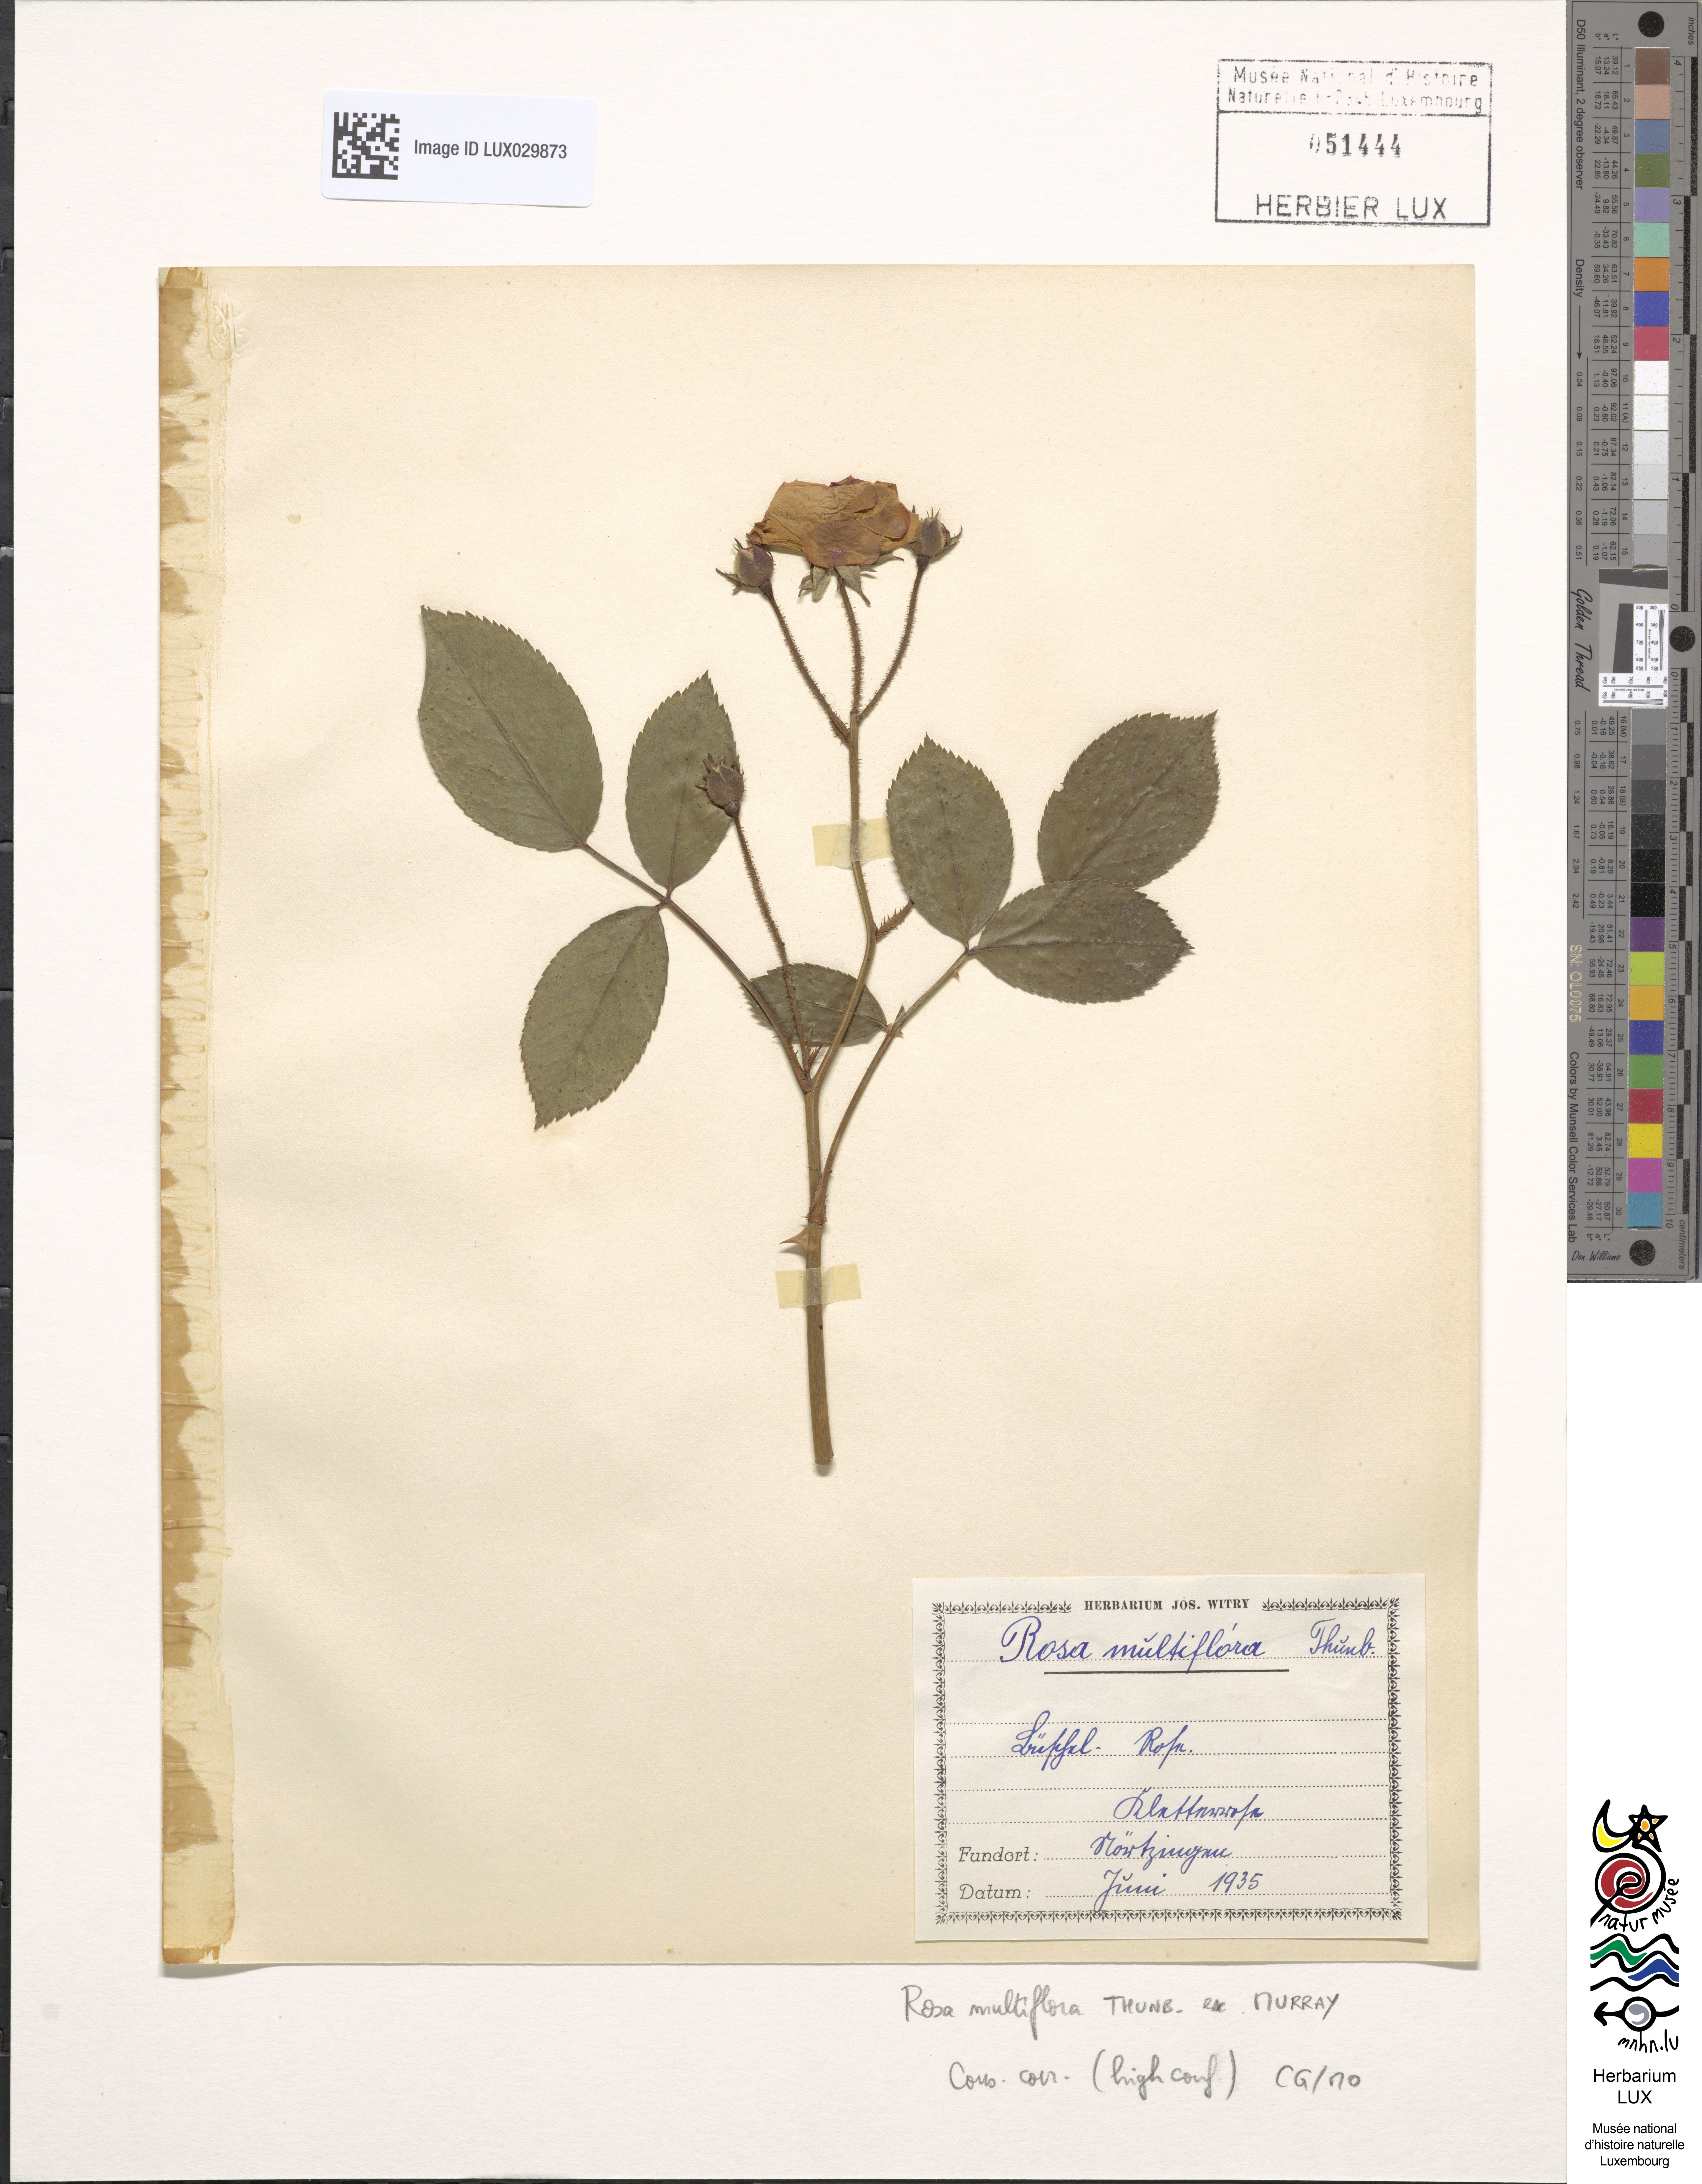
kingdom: Plantae
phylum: Tracheophyta
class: Magnoliopsida
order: Rosales
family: Rosaceae
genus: Rosa
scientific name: Rosa multiflora
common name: Multiflora rose
